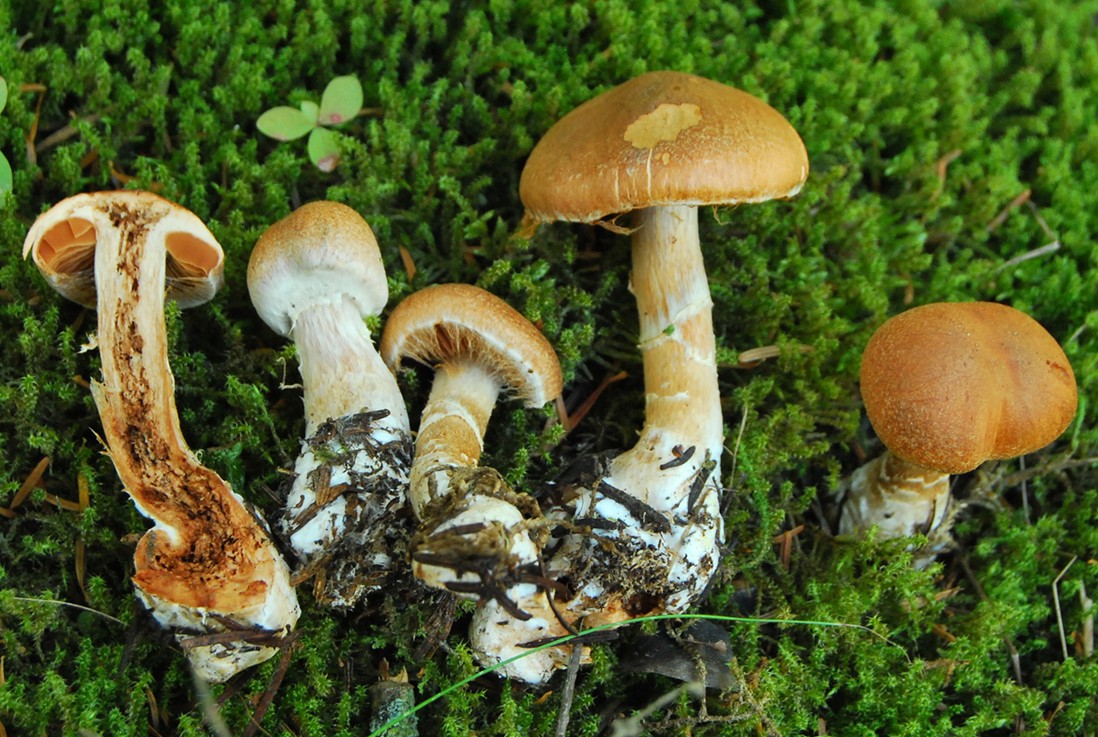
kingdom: Fungi
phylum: Basidiomycota
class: Agaricomycetes
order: Agaricales
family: Cortinariaceae
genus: Cortinarius
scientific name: Cortinarius laniger
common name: teglbladet slørhat
